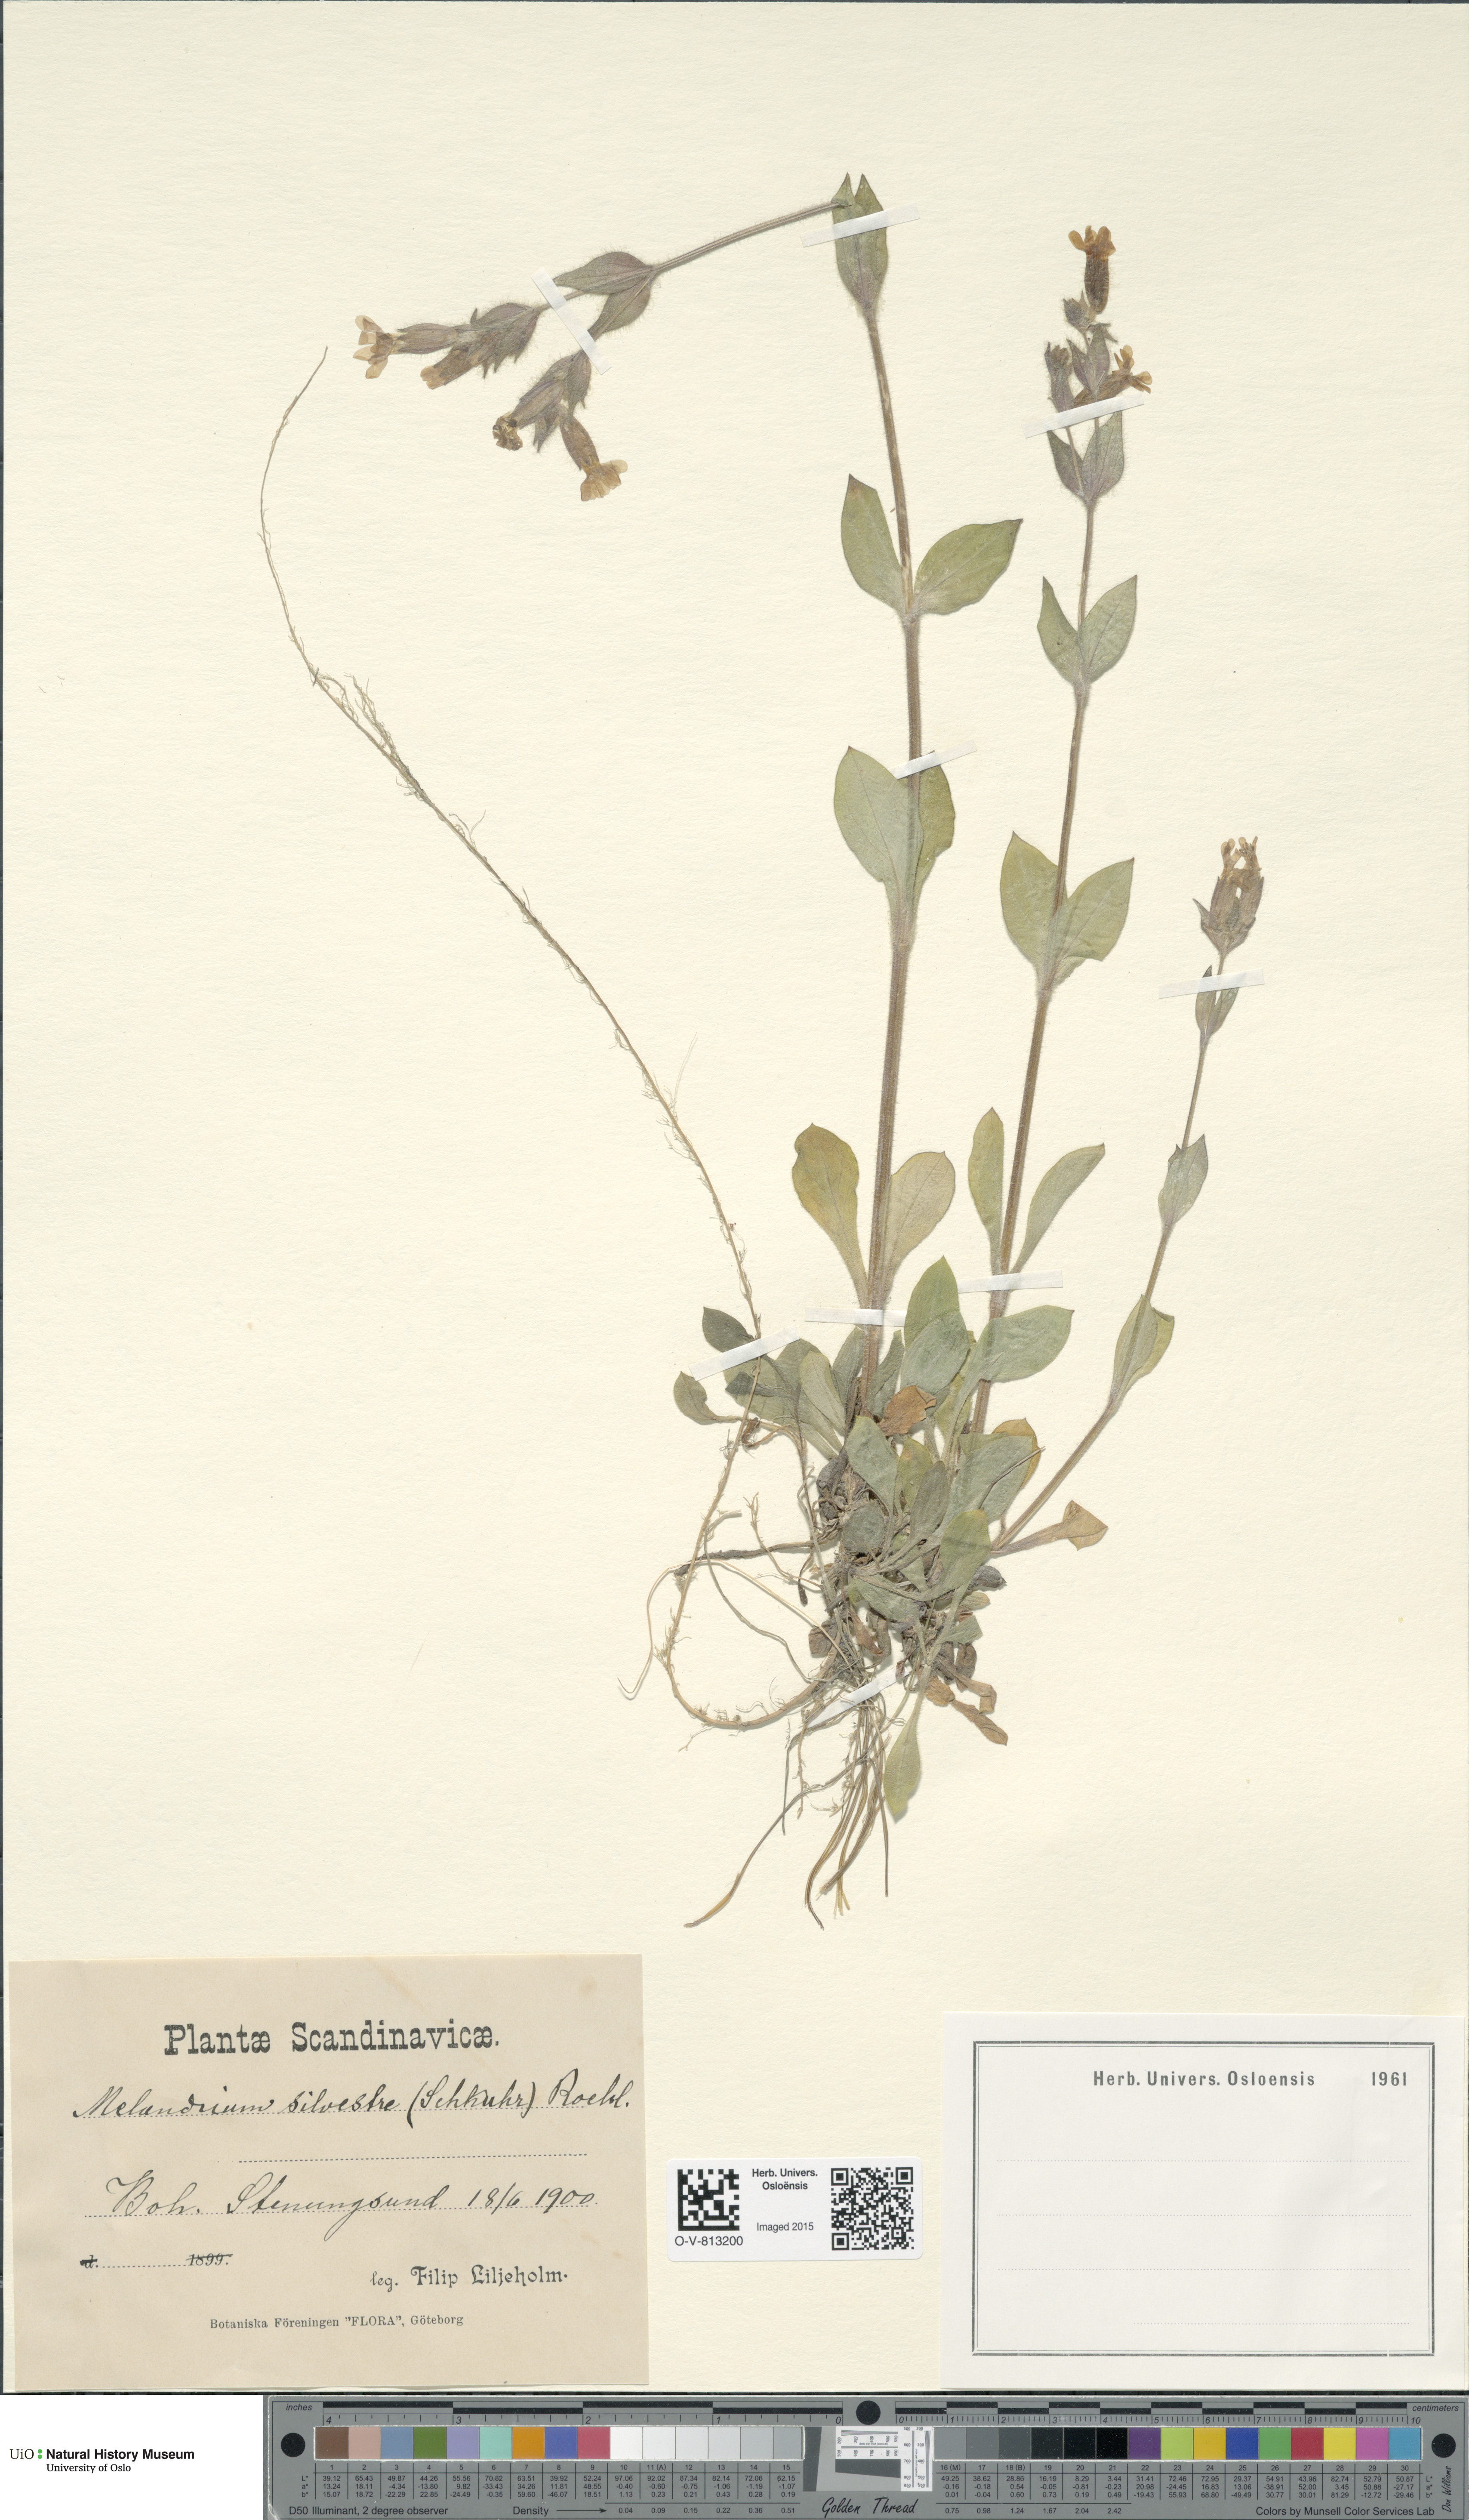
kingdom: Plantae
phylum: Tracheophyta
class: Magnoliopsida
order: Caryophyllales
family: Caryophyllaceae
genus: Silene
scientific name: Silene dioica
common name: Red campion
